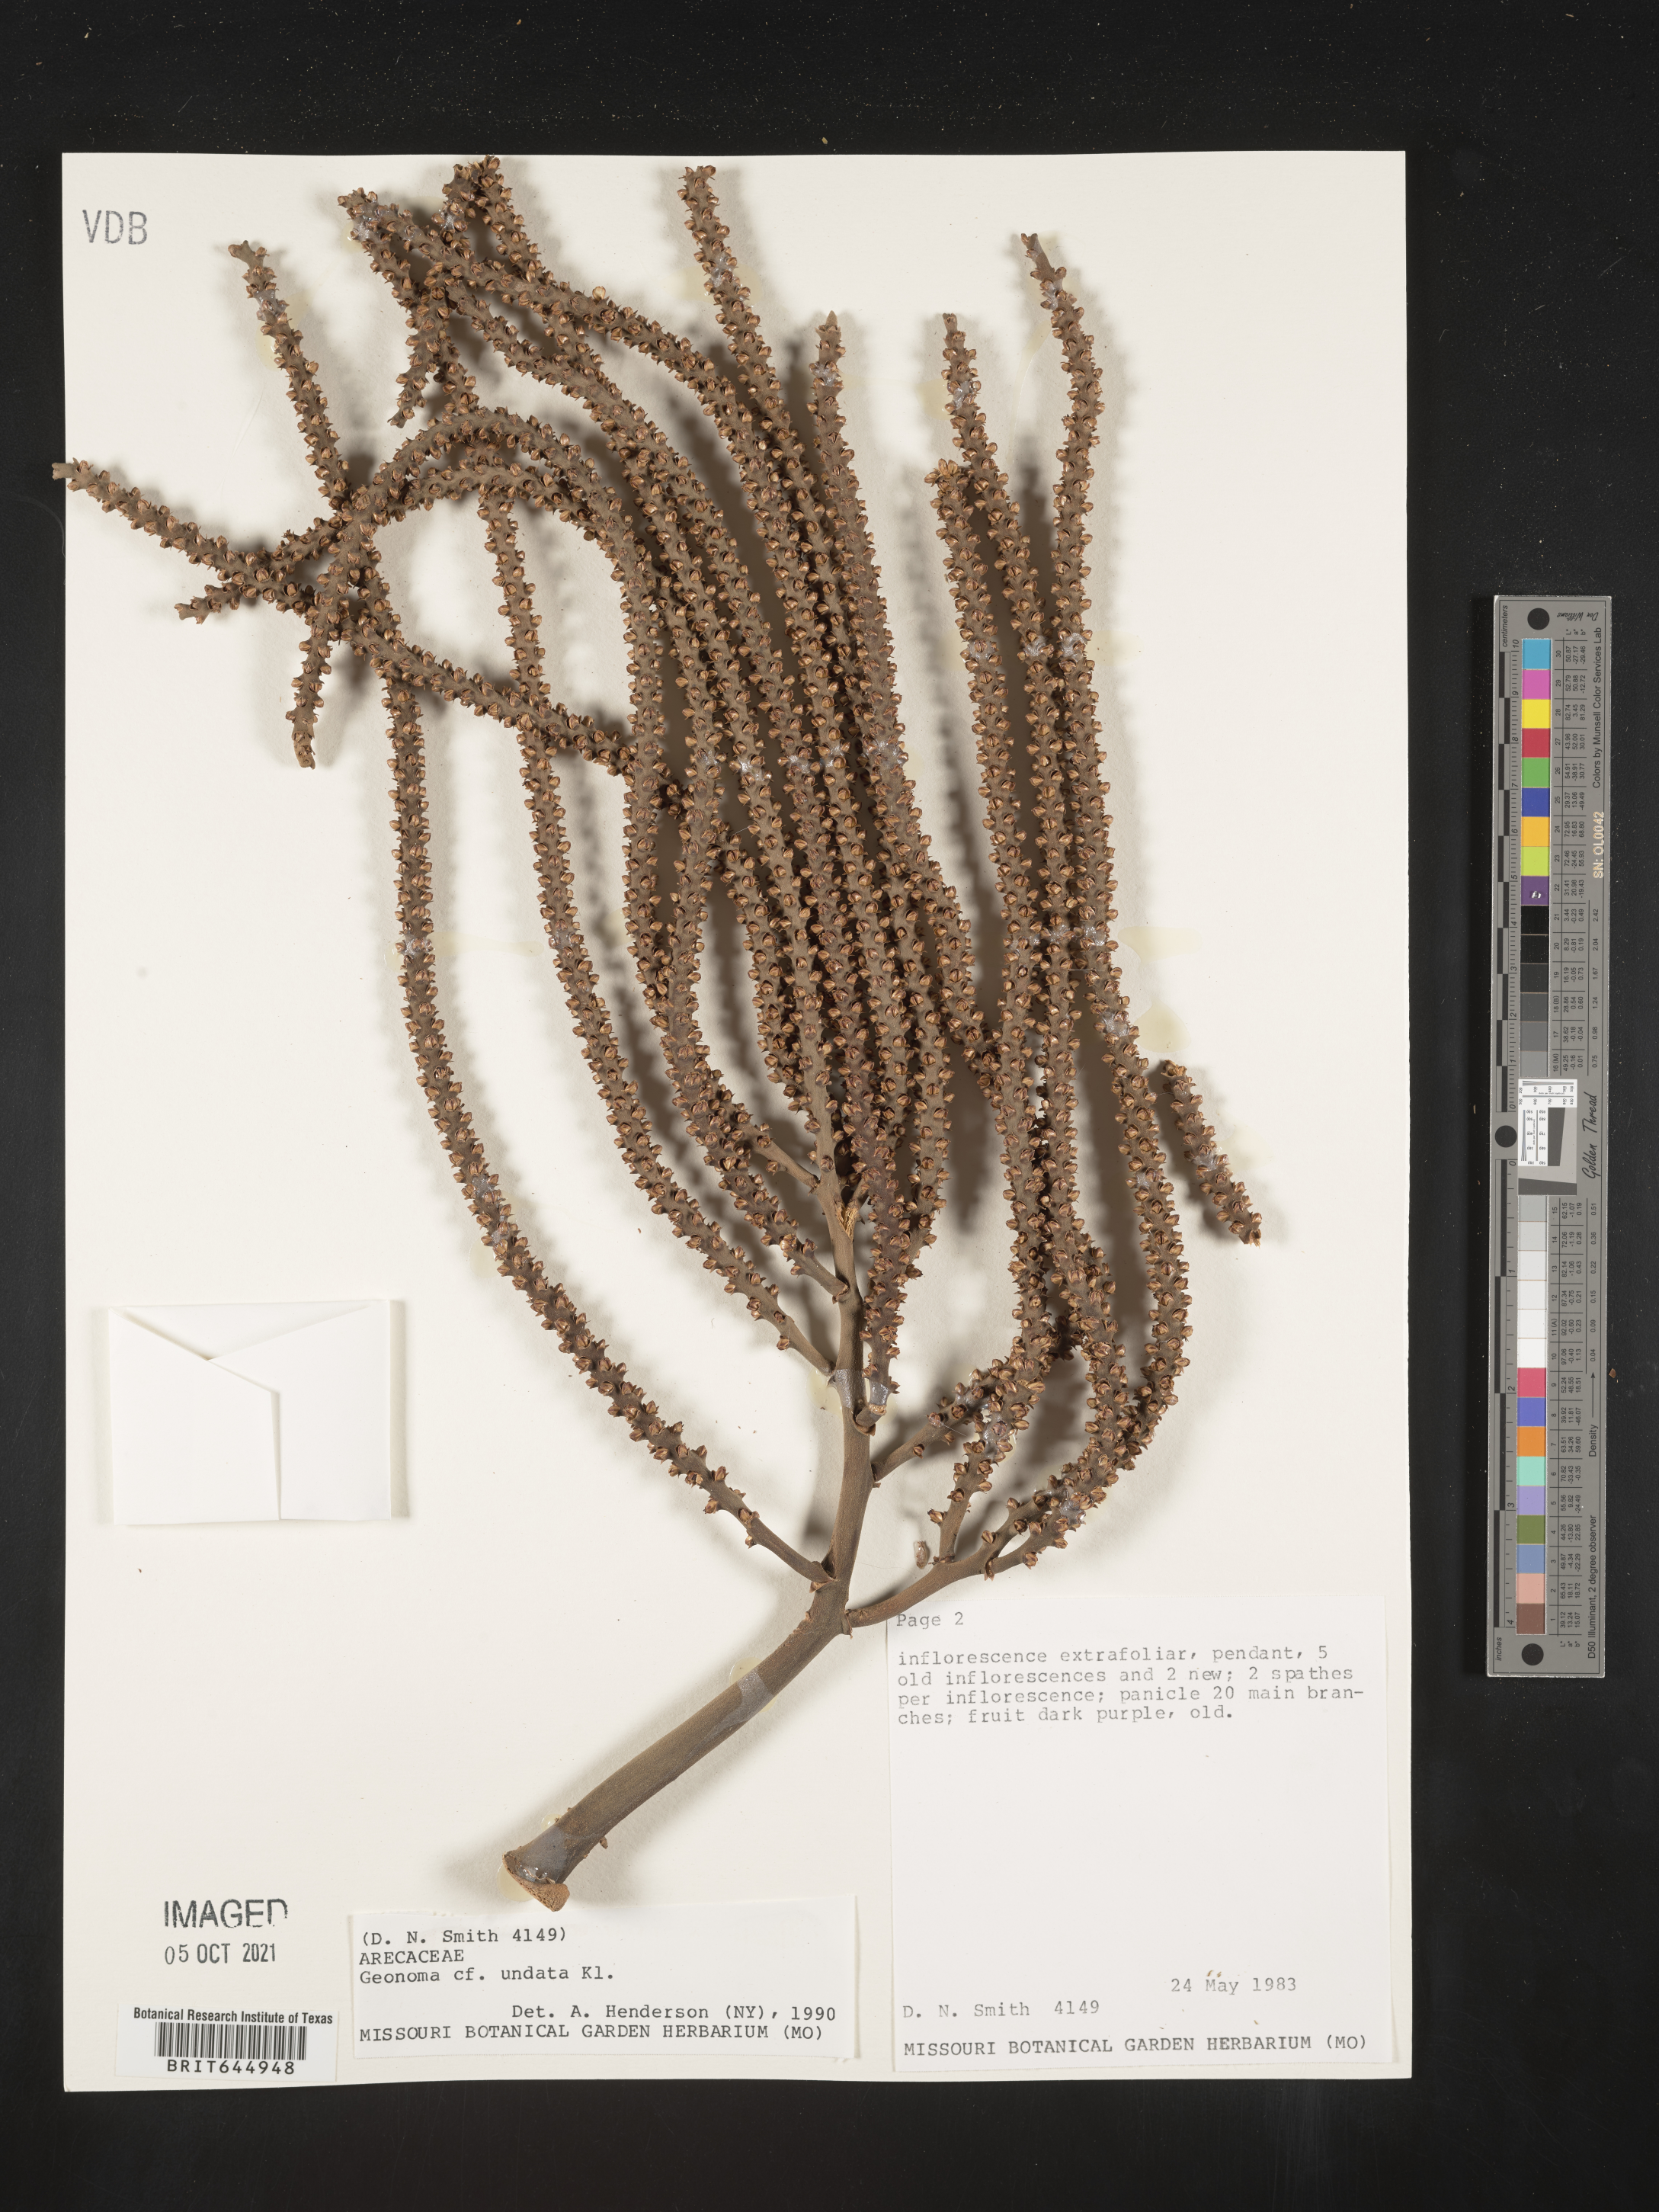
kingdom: Plantae
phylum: Tracheophyta
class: Liliopsida
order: Arecales
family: Arecaceae
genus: Geonoma
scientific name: Geonoma undata
